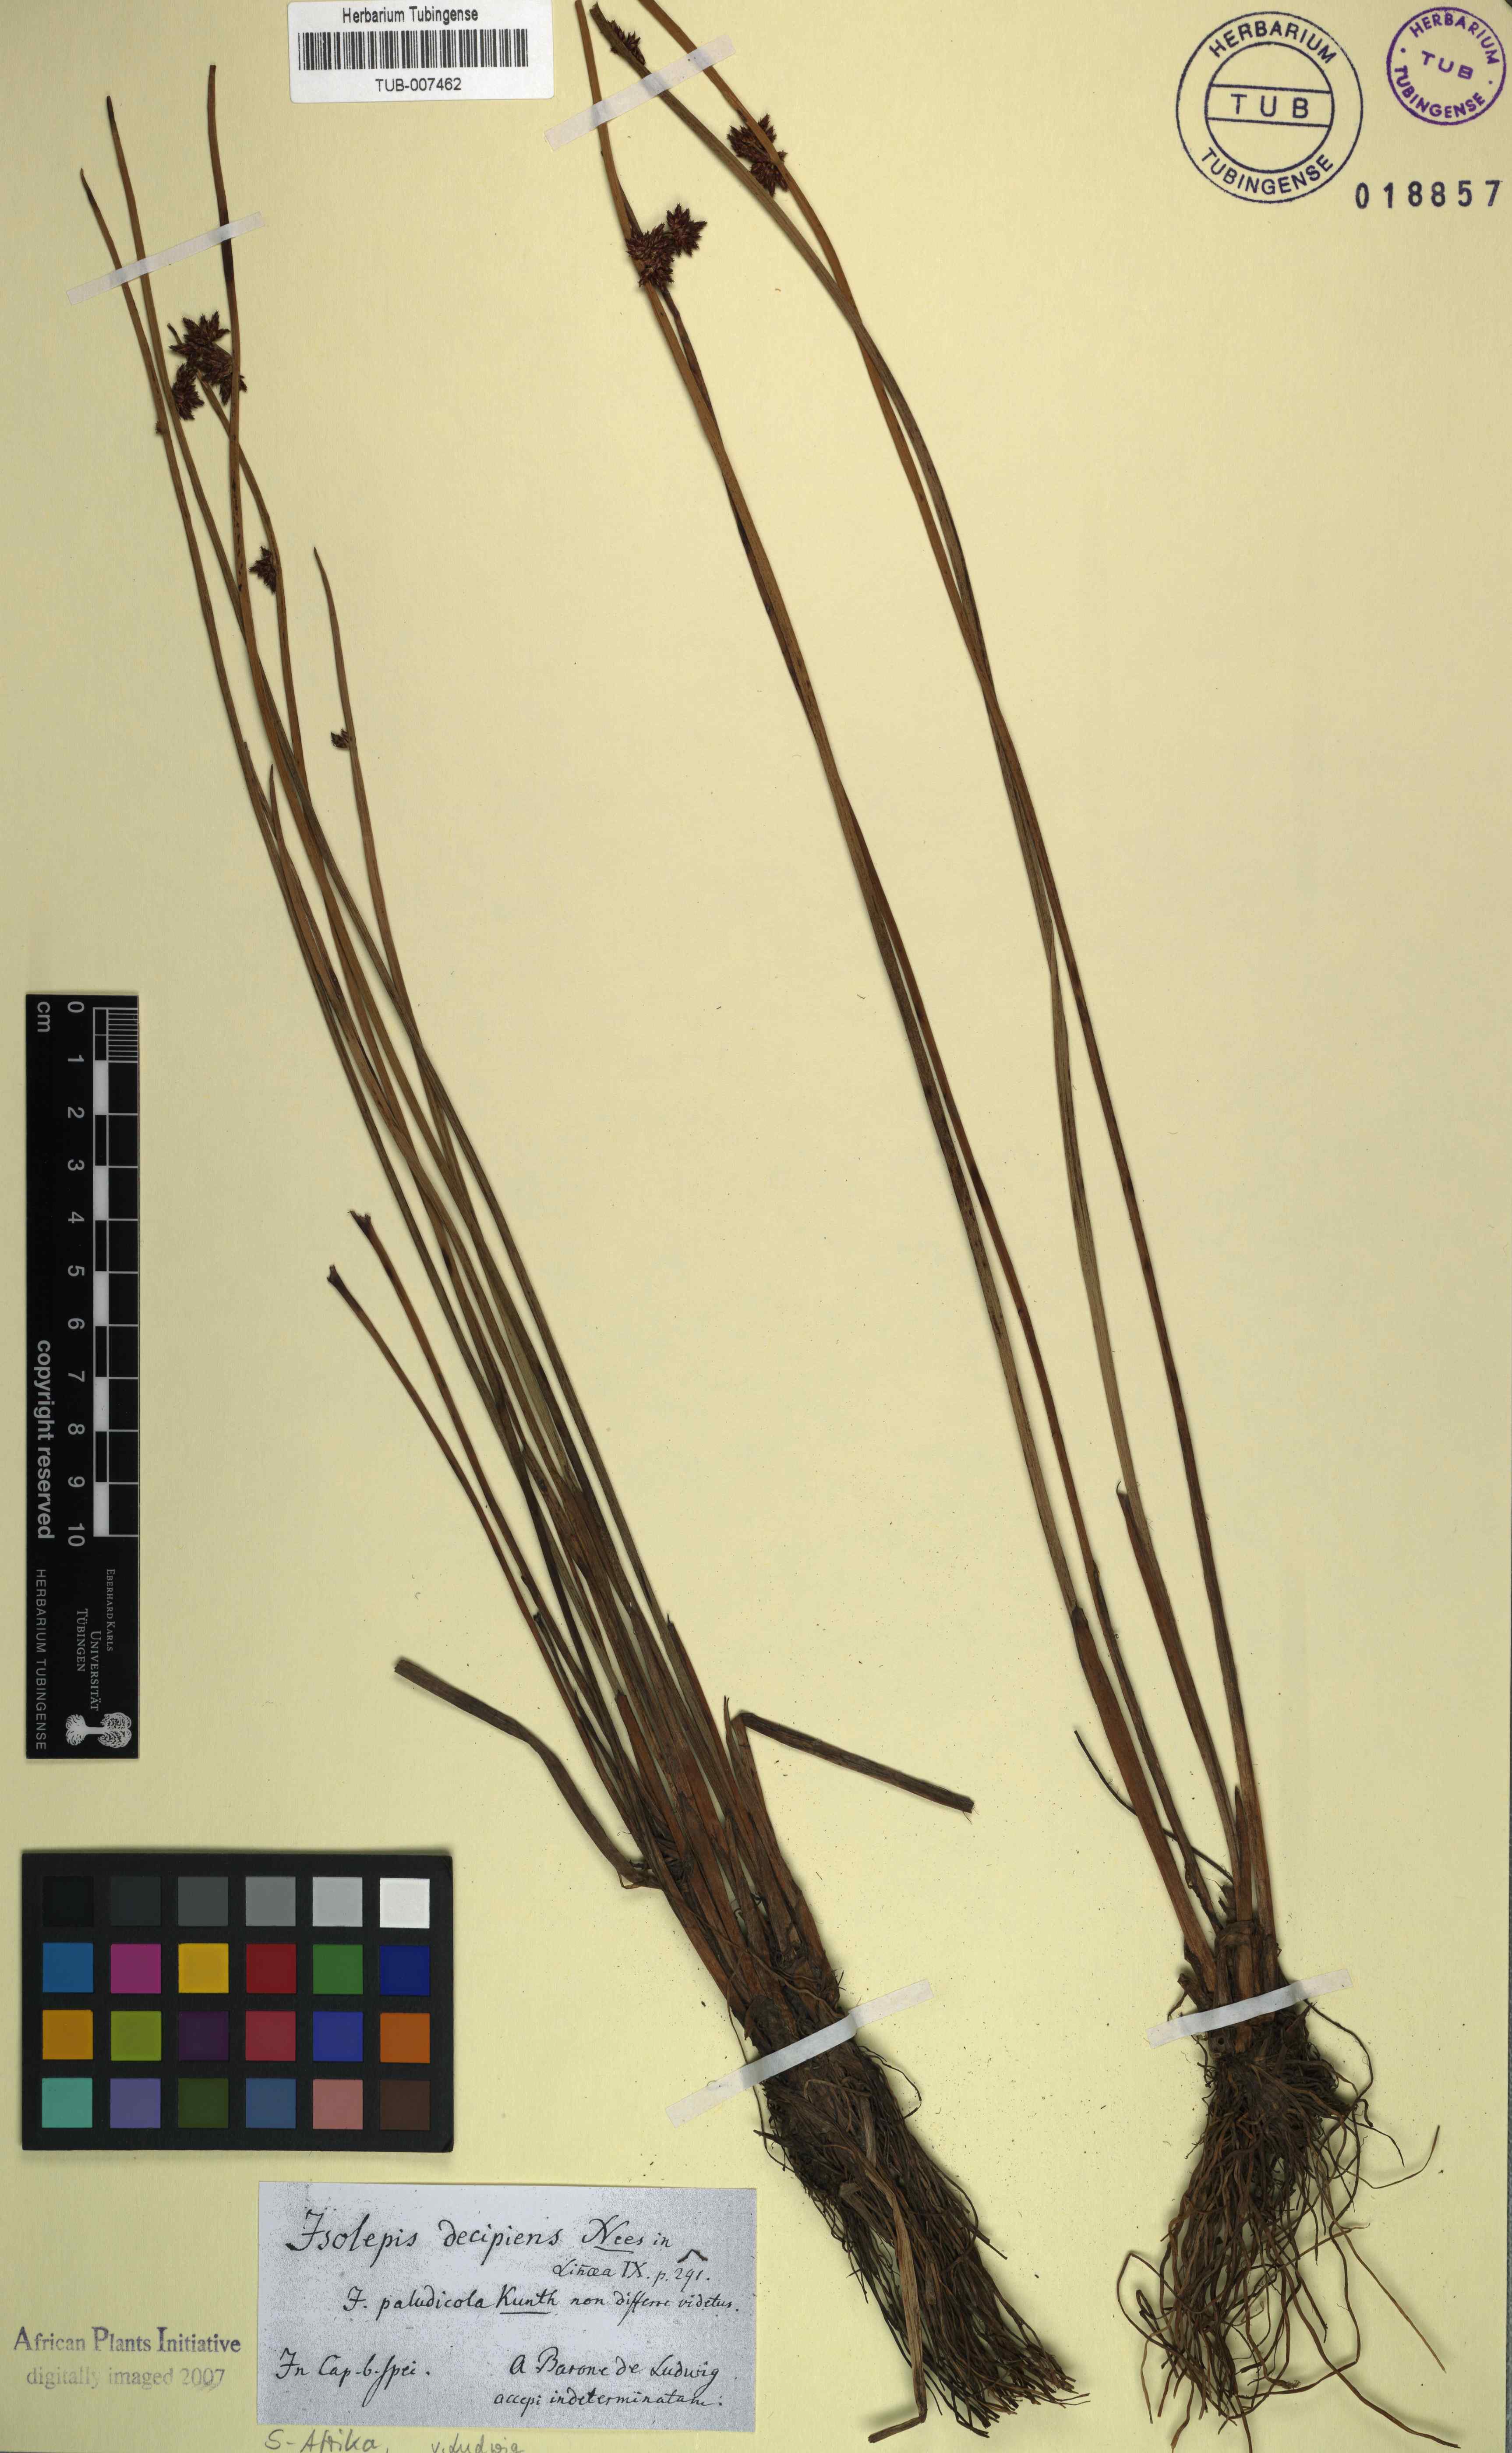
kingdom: Plantae
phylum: Tracheophyta
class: Liliopsida
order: Poales
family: Cyperaceae
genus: Schoenoplectiella
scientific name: Schoenoplectiella paludicola
